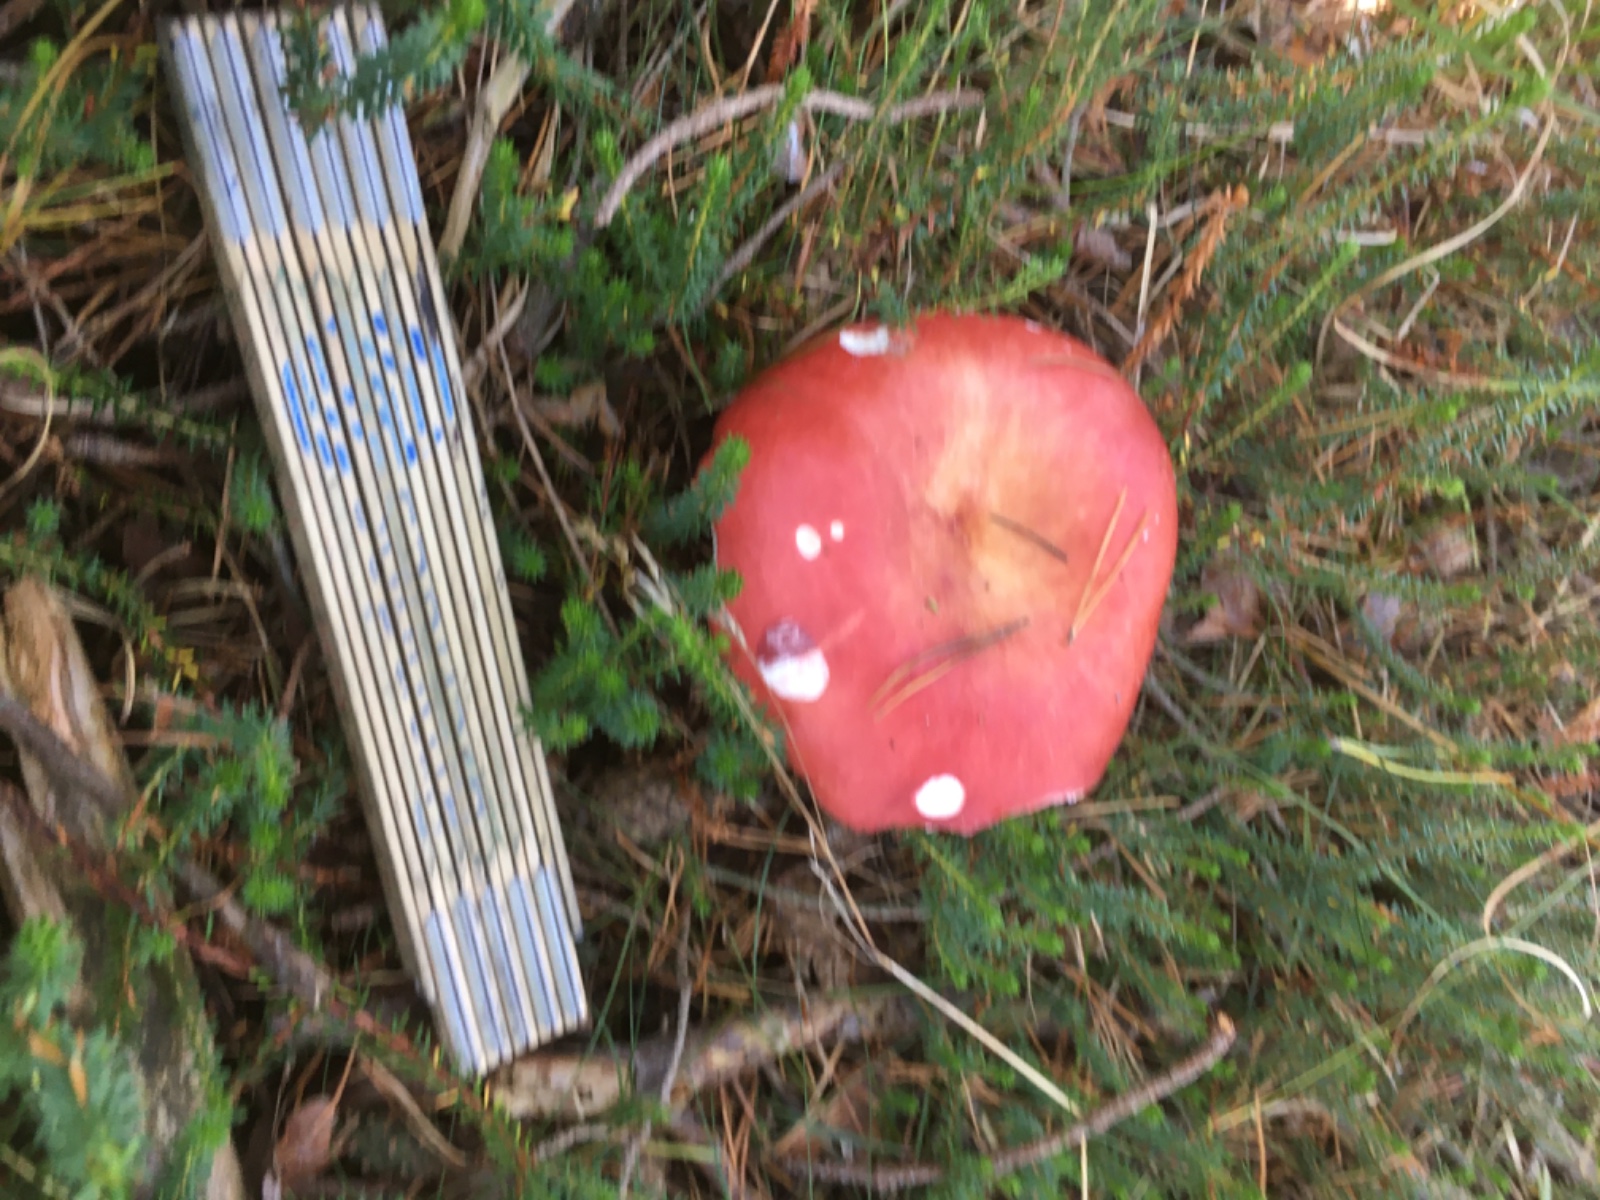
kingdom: Fungi
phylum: Basidiomycota
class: Agaricomycetes
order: Russulales
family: Russulaceae
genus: Russula
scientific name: Russula paludosa
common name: prægtig skørhat
